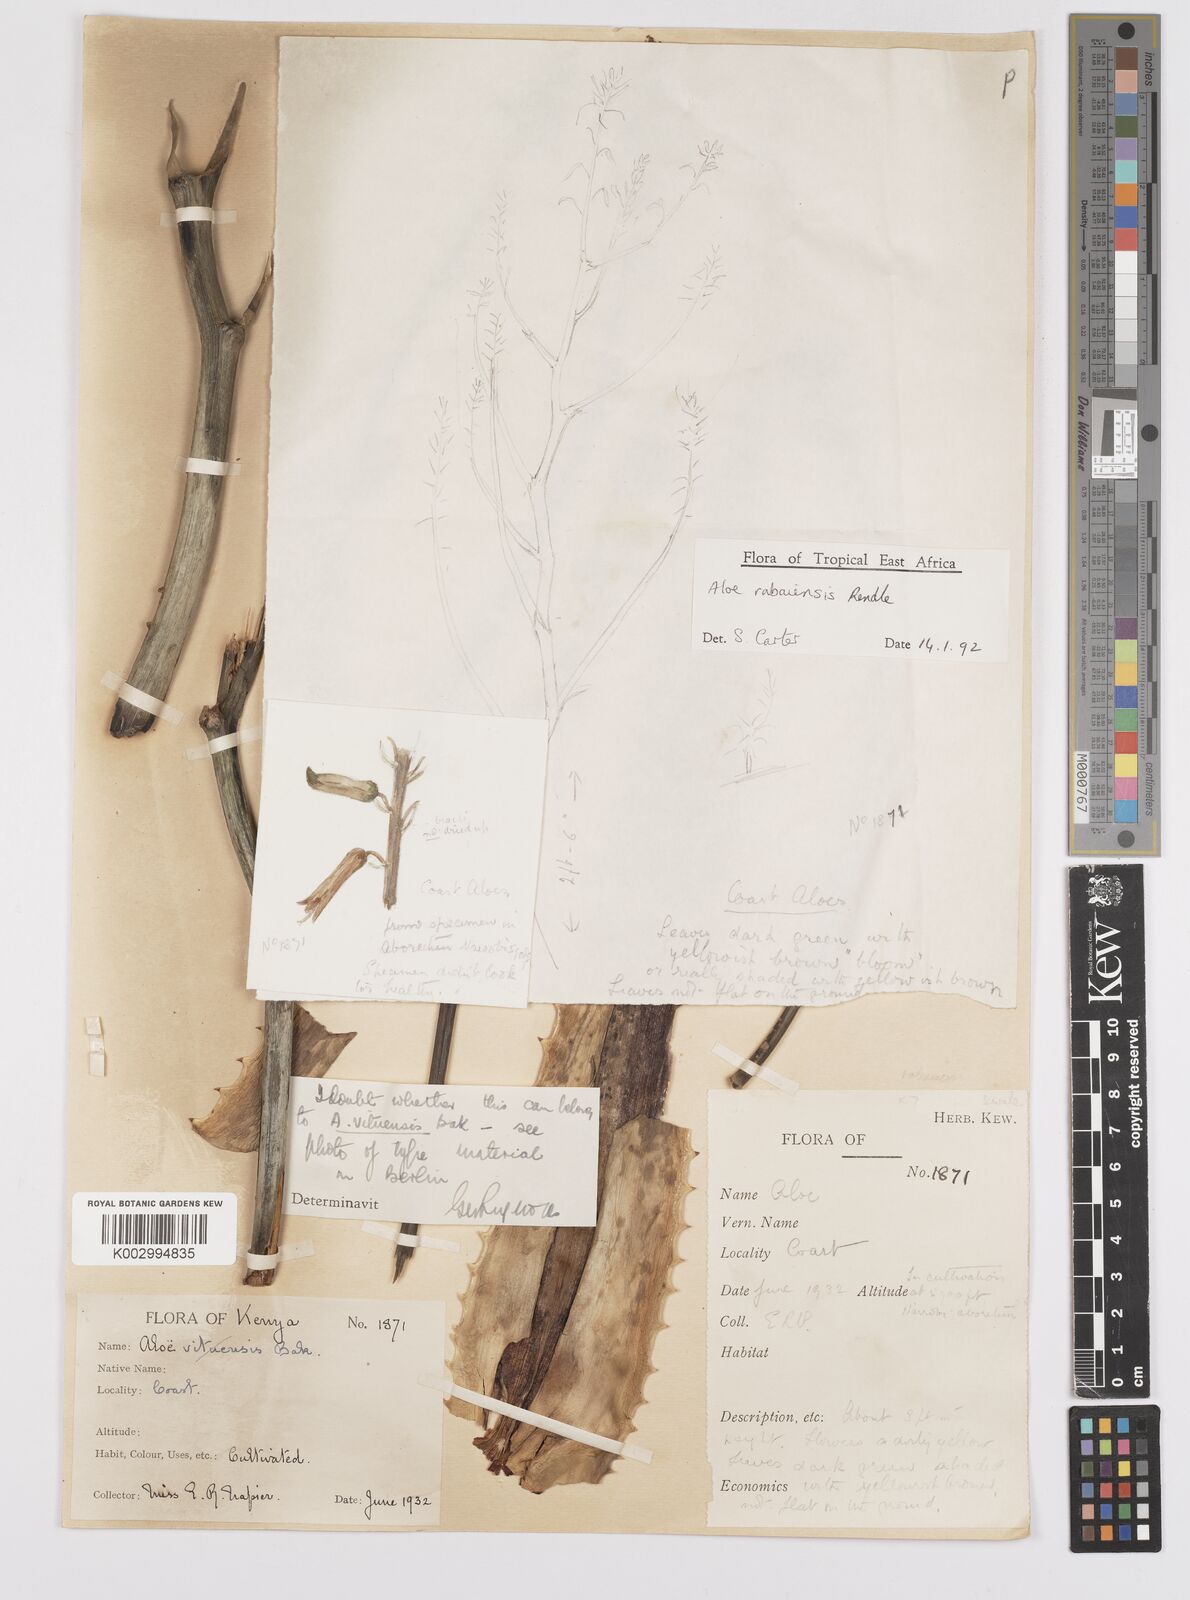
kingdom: Plantae
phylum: Tracheophyta
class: Liliopsida
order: Asparagales
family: Asphodelaceae
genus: Aloe
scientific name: Aloe rabaiensis
